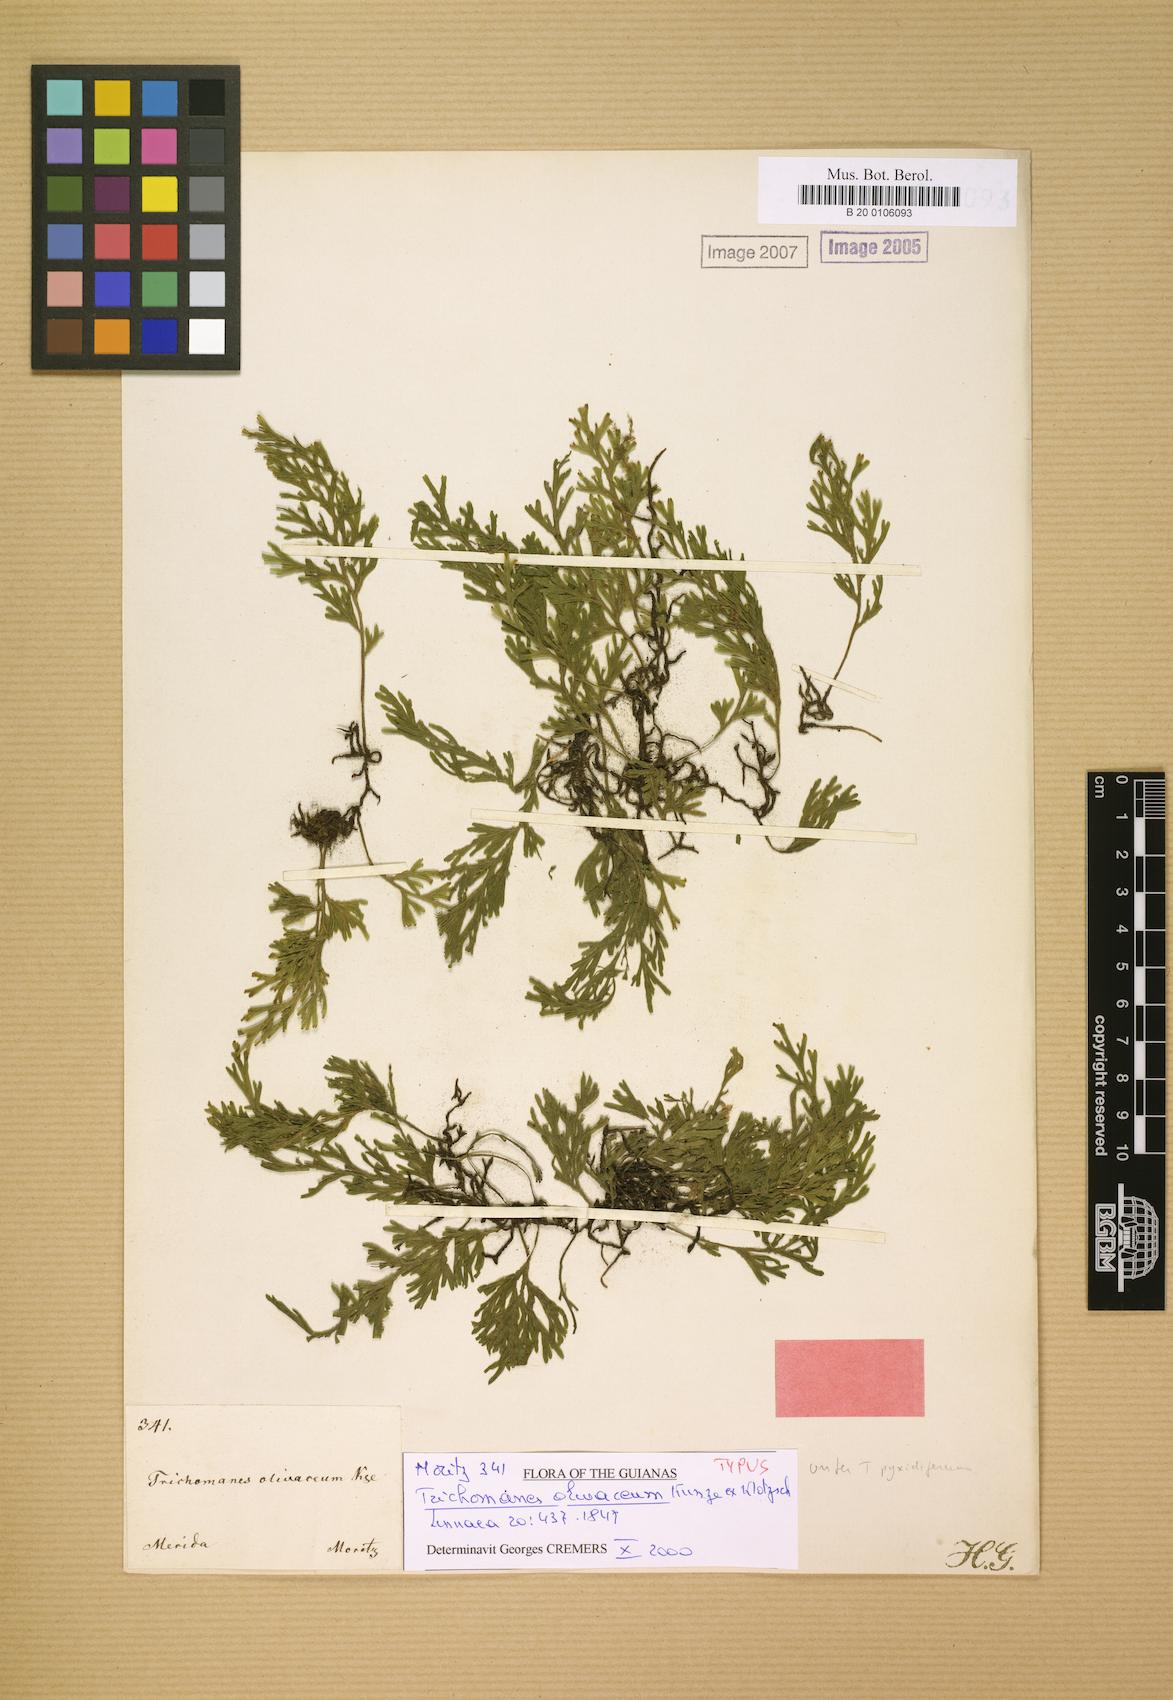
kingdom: Plantae
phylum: Tracheophyta
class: Polypodiopsida
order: Hymenophyllales
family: Hymenophyllaceae
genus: Polyphlebium
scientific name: Polyphlebium pyxidiferum
